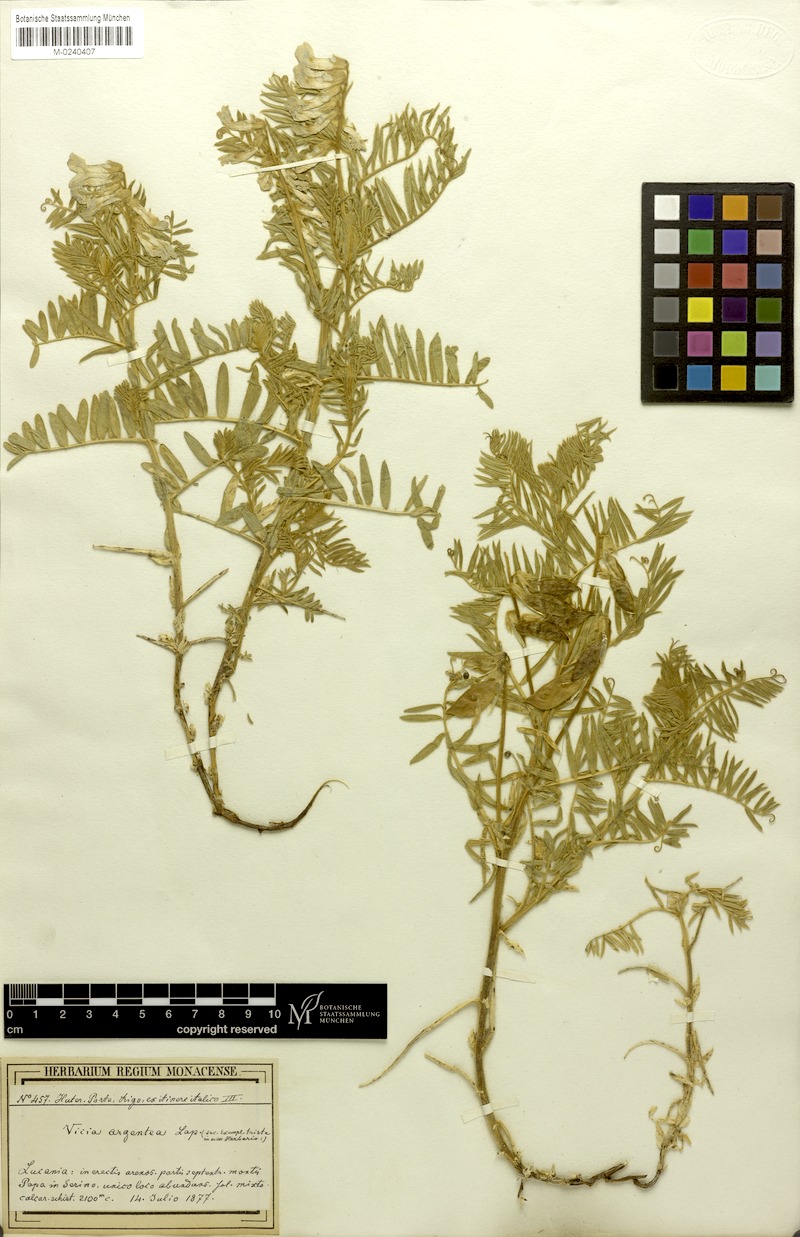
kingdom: Plantae
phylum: Tracheophyta
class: Magnoliopsida
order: Fabales
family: Fabaceae
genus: Vicia
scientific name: Vicia canescens
